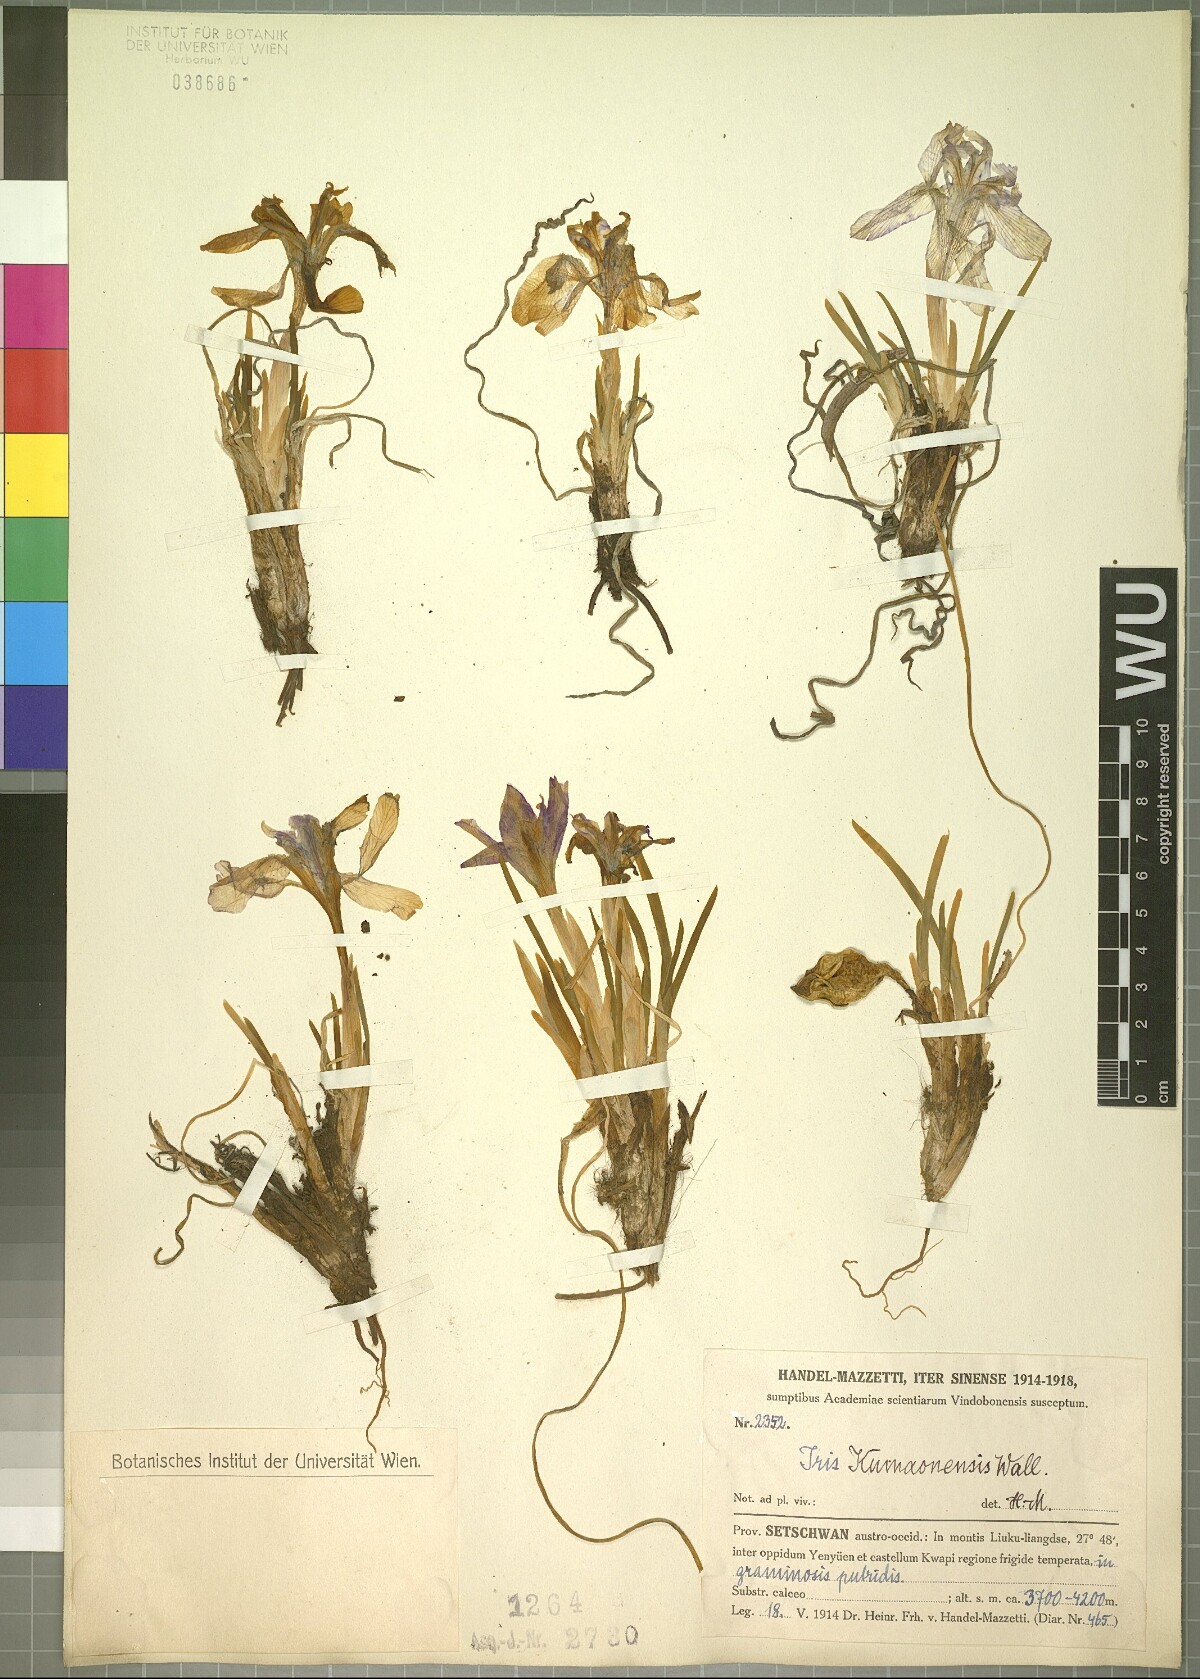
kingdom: Plantae
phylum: Tracheophyta
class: Liliopsida
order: Asparagales
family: Iridaceae
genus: Iris
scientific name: Iris kemaonensis
